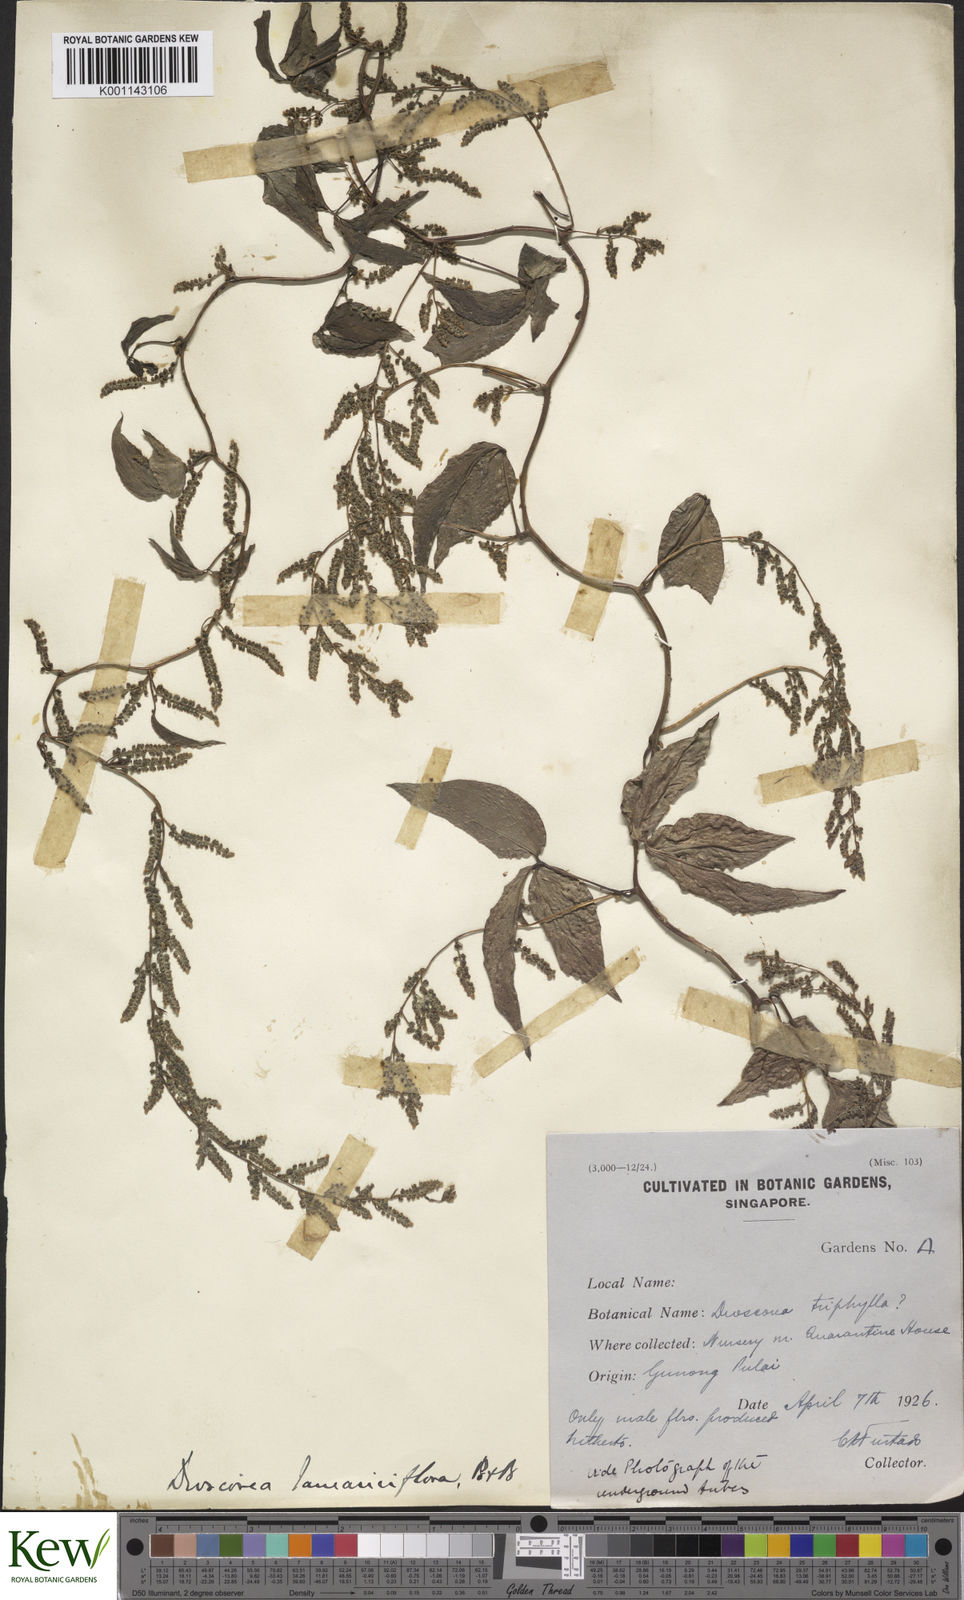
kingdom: Plantae
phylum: Tracheophyta
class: Liliopsida
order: Dioscoreales
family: Dioscoreaceae
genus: Dioscorea
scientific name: Dioscorea tamarisciflora
